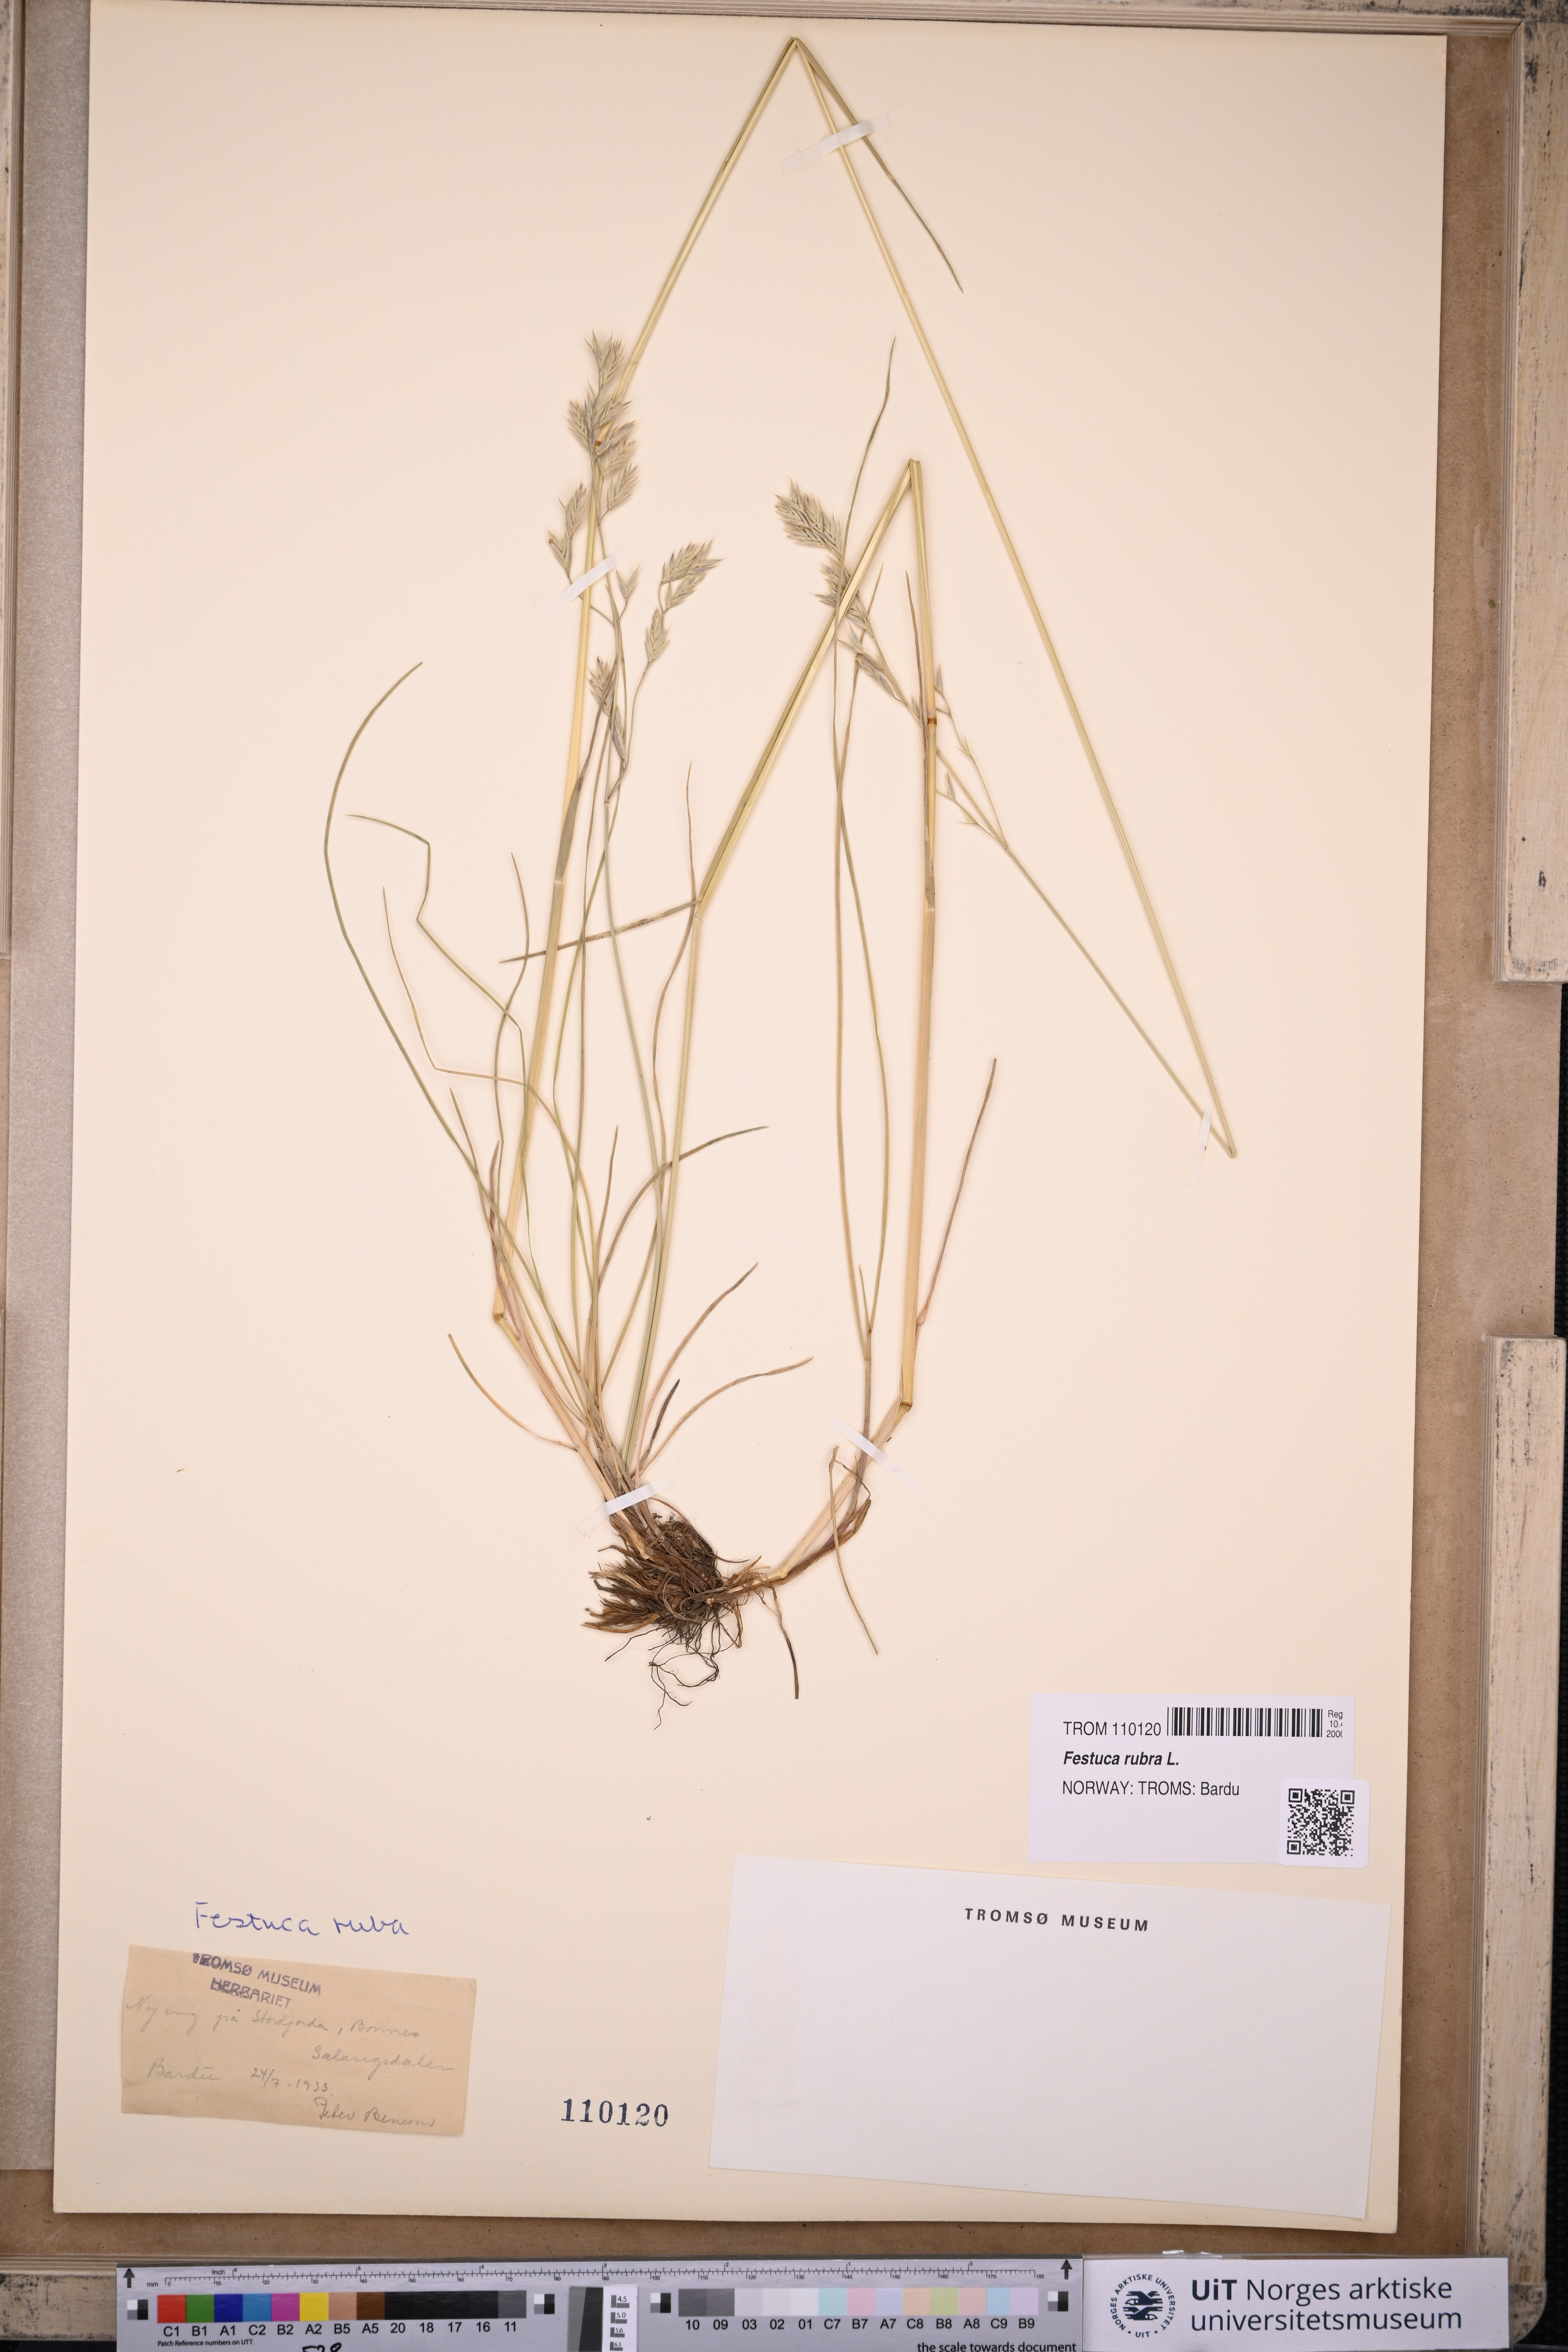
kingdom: Plantae
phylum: Tracheophyta
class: Liliopsida
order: Poales
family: Poaceae
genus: Festuca
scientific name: Festuca rubra
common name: Red fescue
